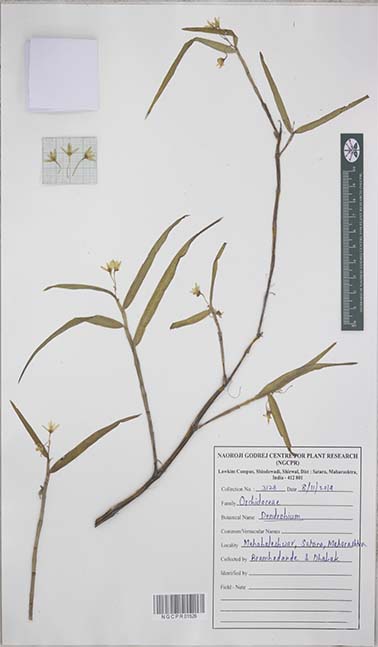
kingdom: Plantae
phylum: Tracheophyta
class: Liliopsida
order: Asparagales
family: Orchidaceae
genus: Dendrobium
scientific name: Dendrobium
